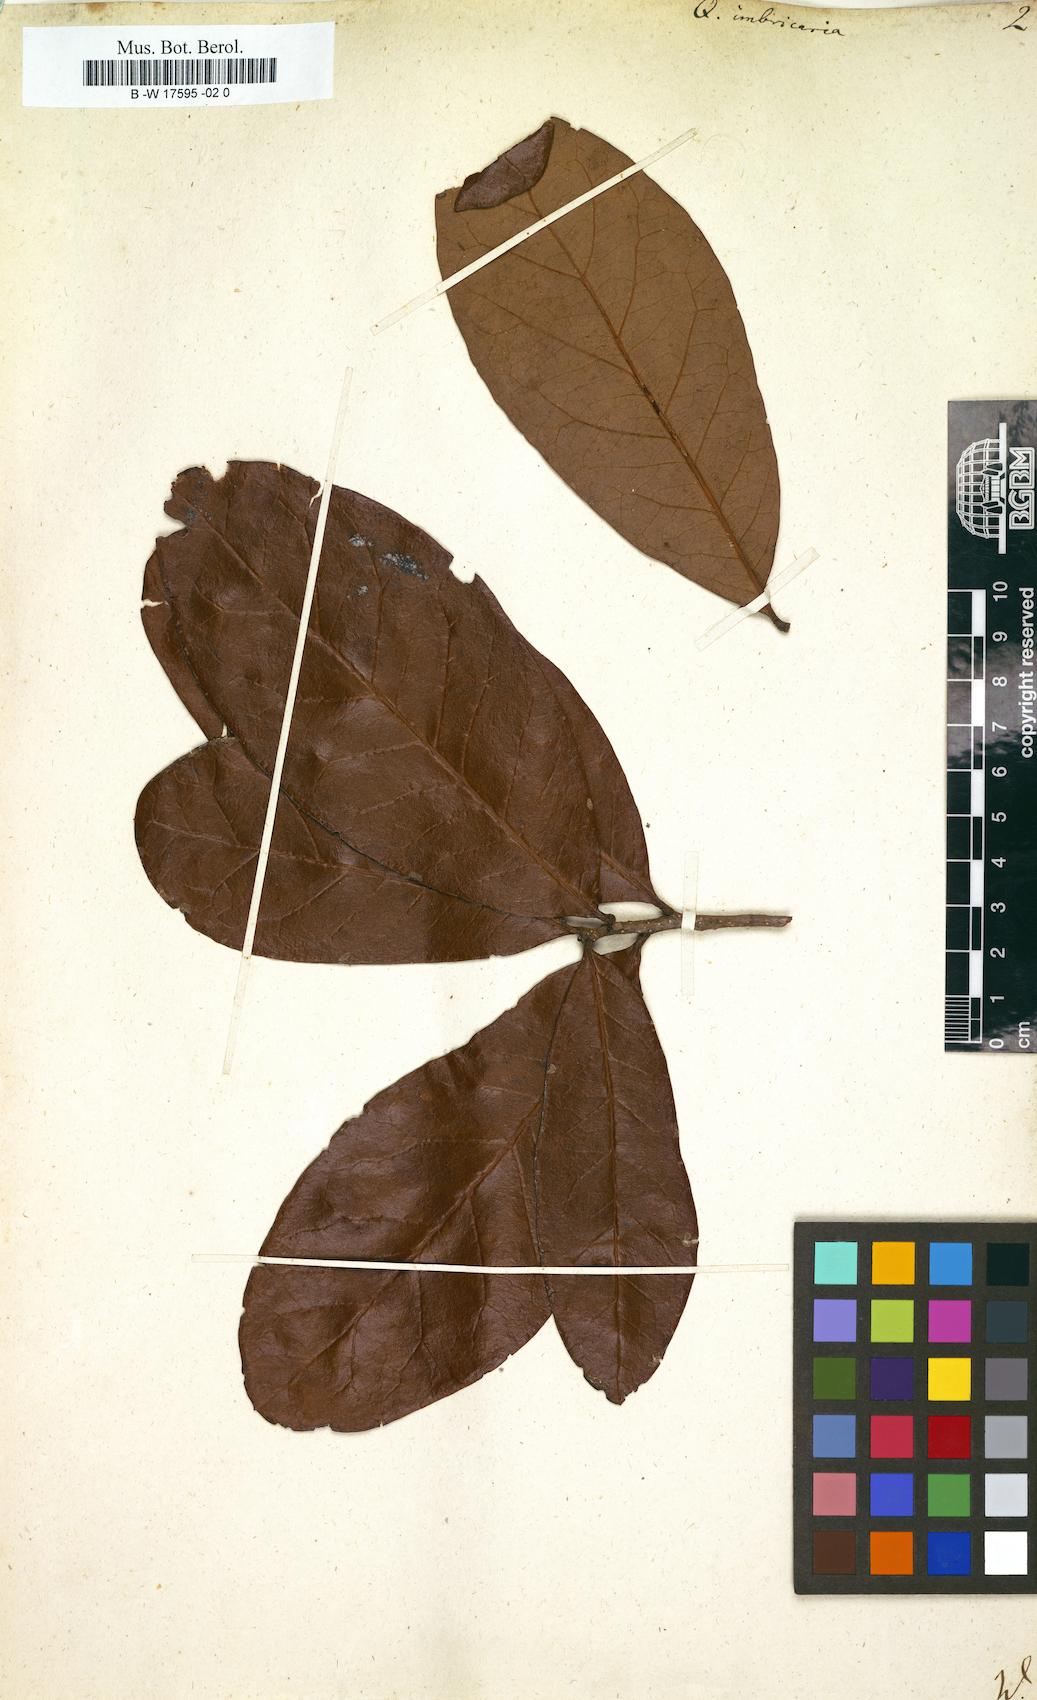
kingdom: Plantae
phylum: Tracheophyta
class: Magnoliopsida
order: Fagales
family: Fagaceae
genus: Quercus
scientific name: Quercus imbricaria
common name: Shingle oak
